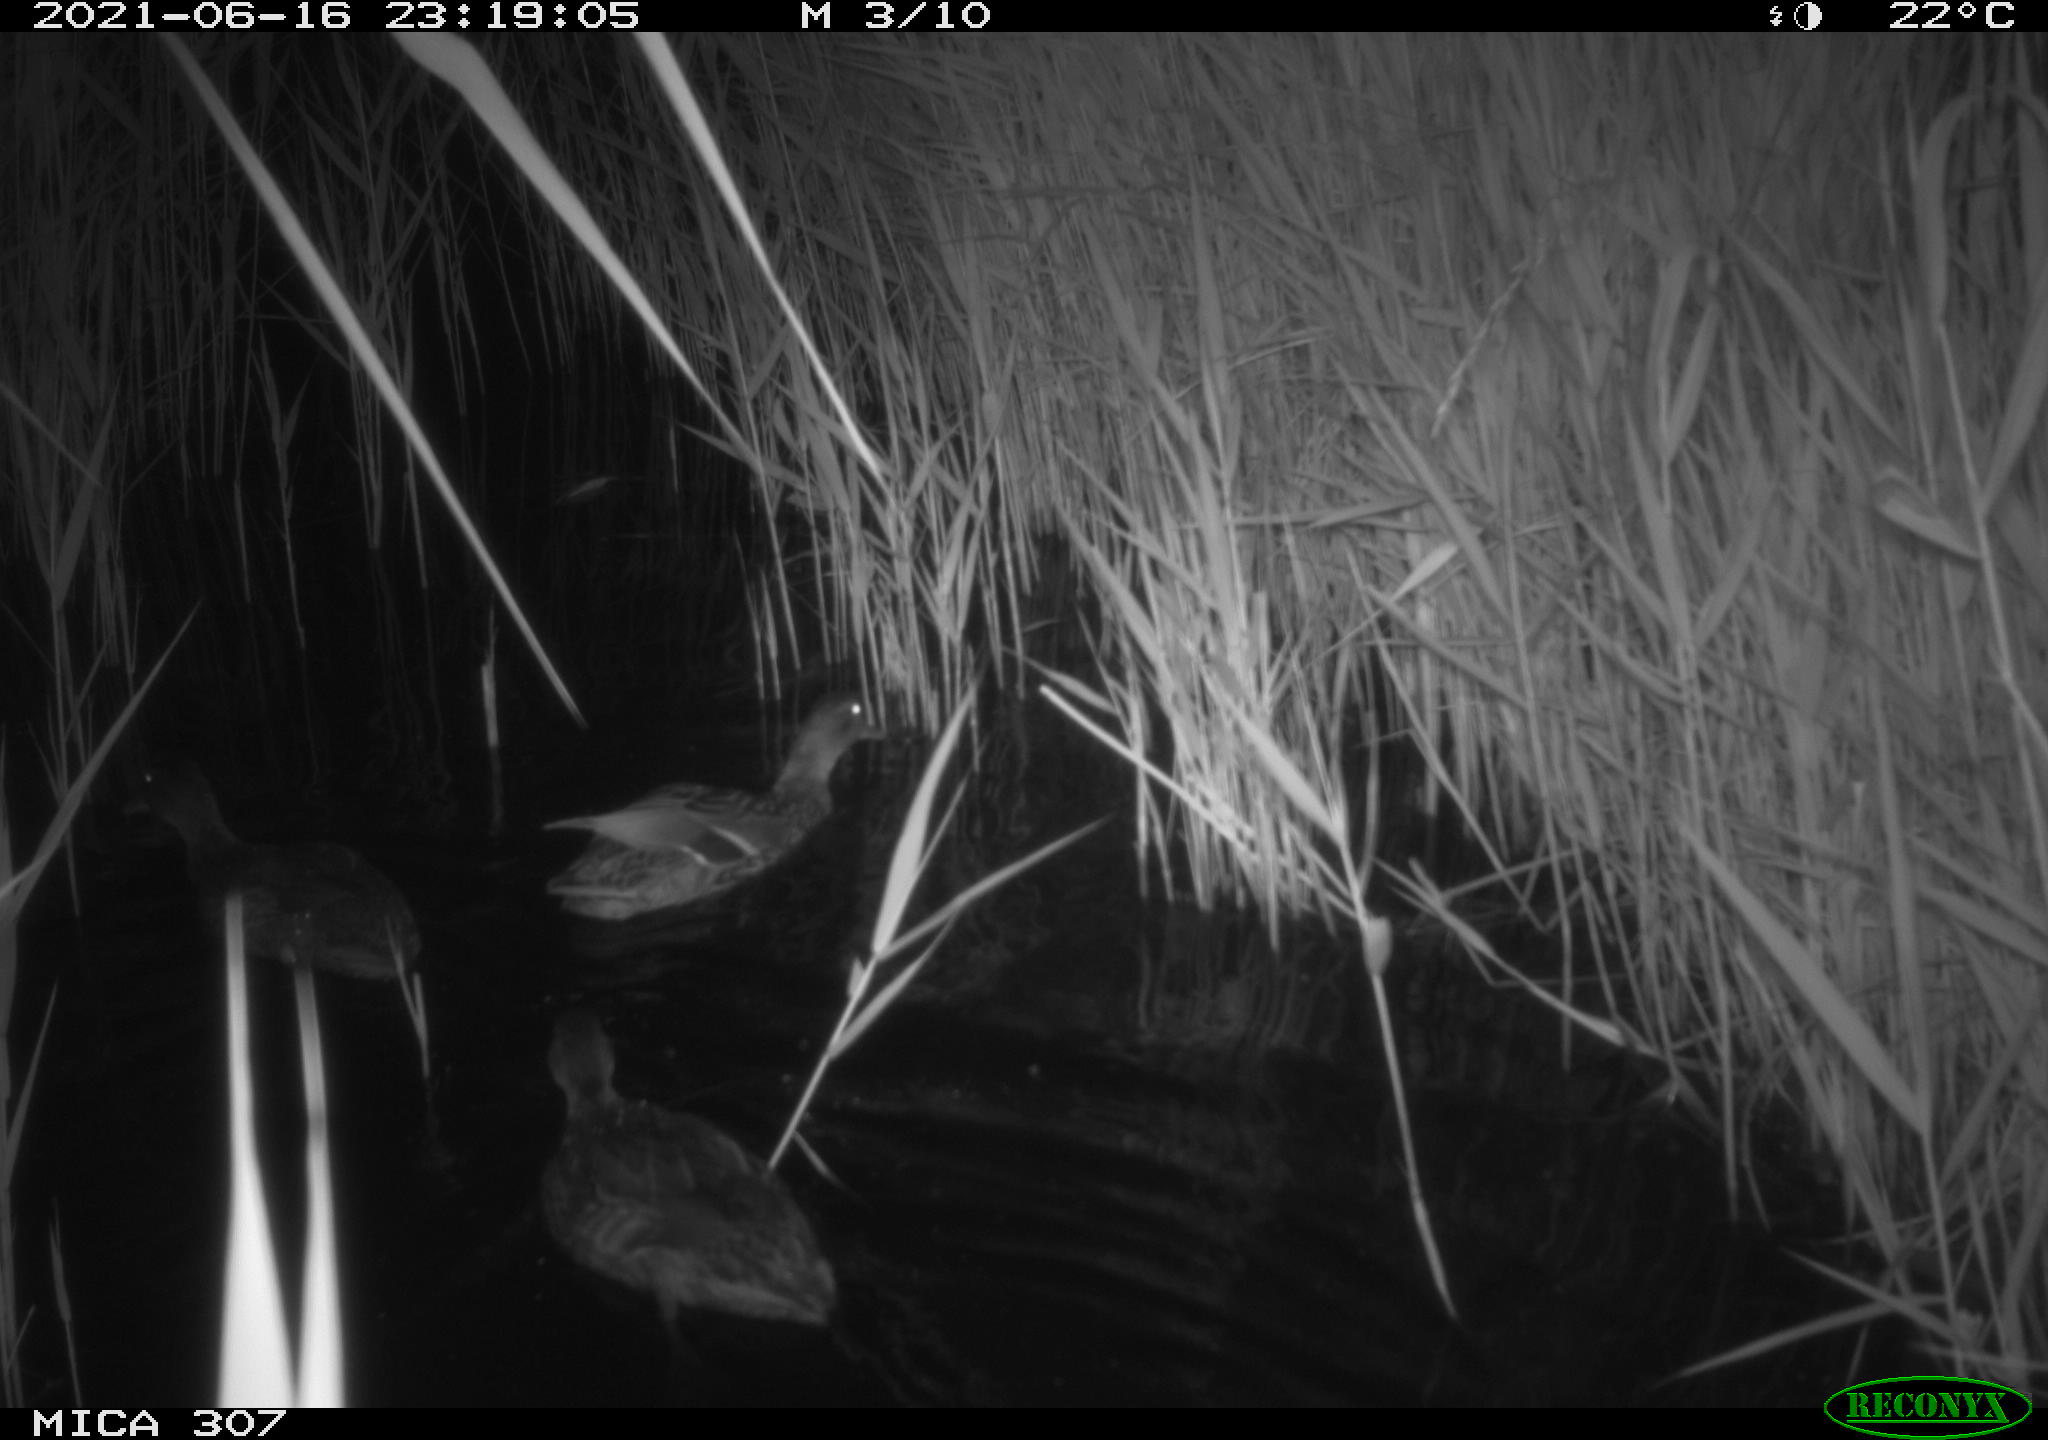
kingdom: Animalia
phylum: Chordata
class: Aves
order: Anseriformes
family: Anatidae
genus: Mareca
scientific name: Mareca strepera
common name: Gadwall
